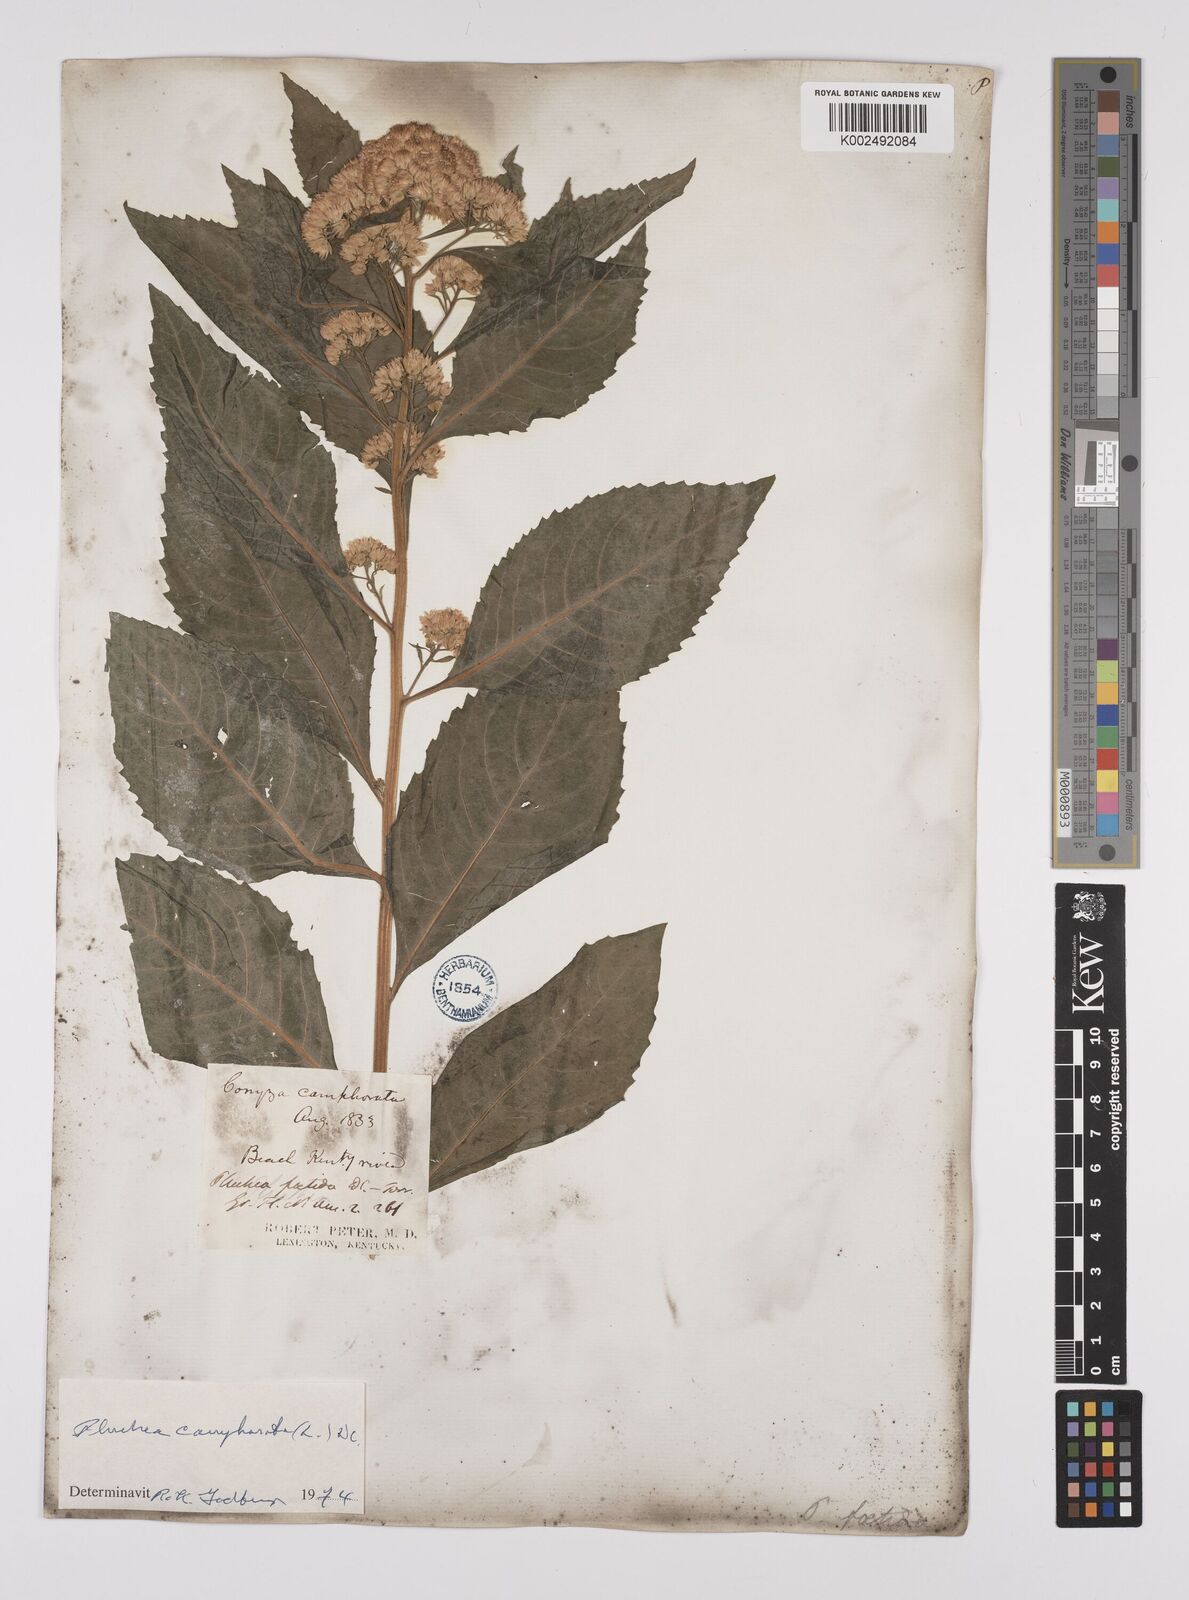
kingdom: Plantae
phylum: Tracheophyta
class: Magnoliopsida
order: Asterales
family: Asteraceae
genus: Pluchea
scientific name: Pluchea camphorata
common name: Camphor pluchea
